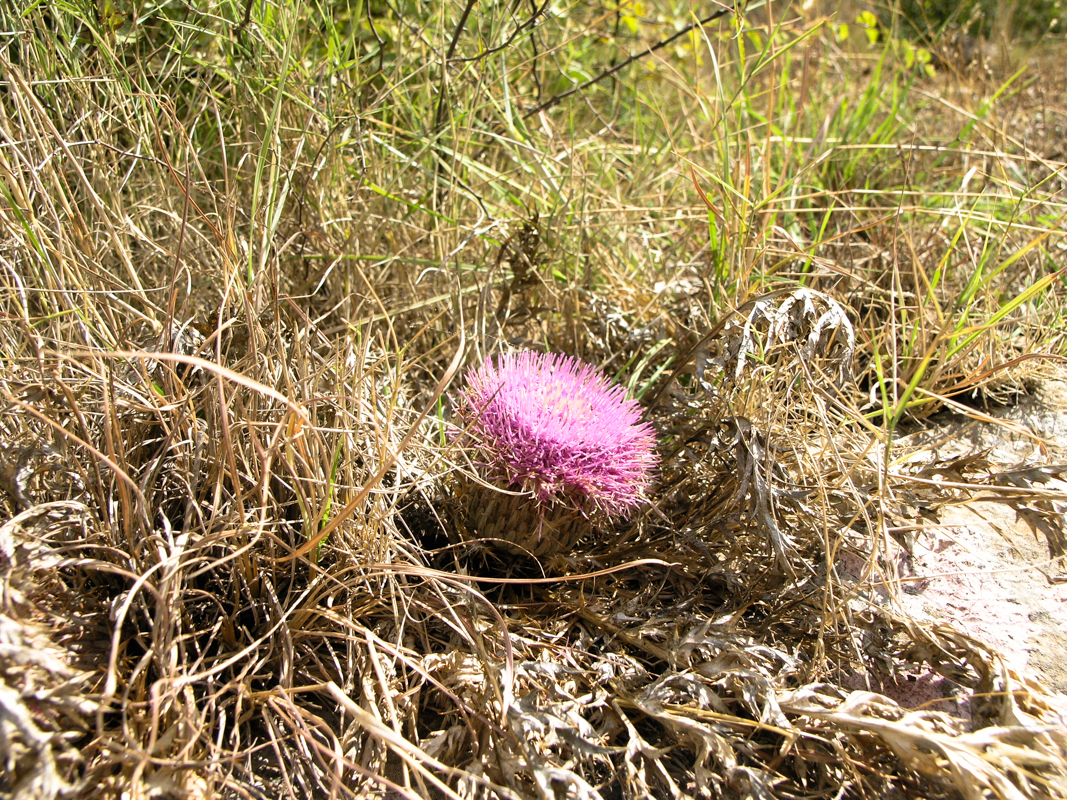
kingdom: Plantae
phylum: Tracheophyta
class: Magnoliopsida
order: Asterales
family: Asteraceae
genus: Chamaeleon
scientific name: Chamaeleon gummifer
